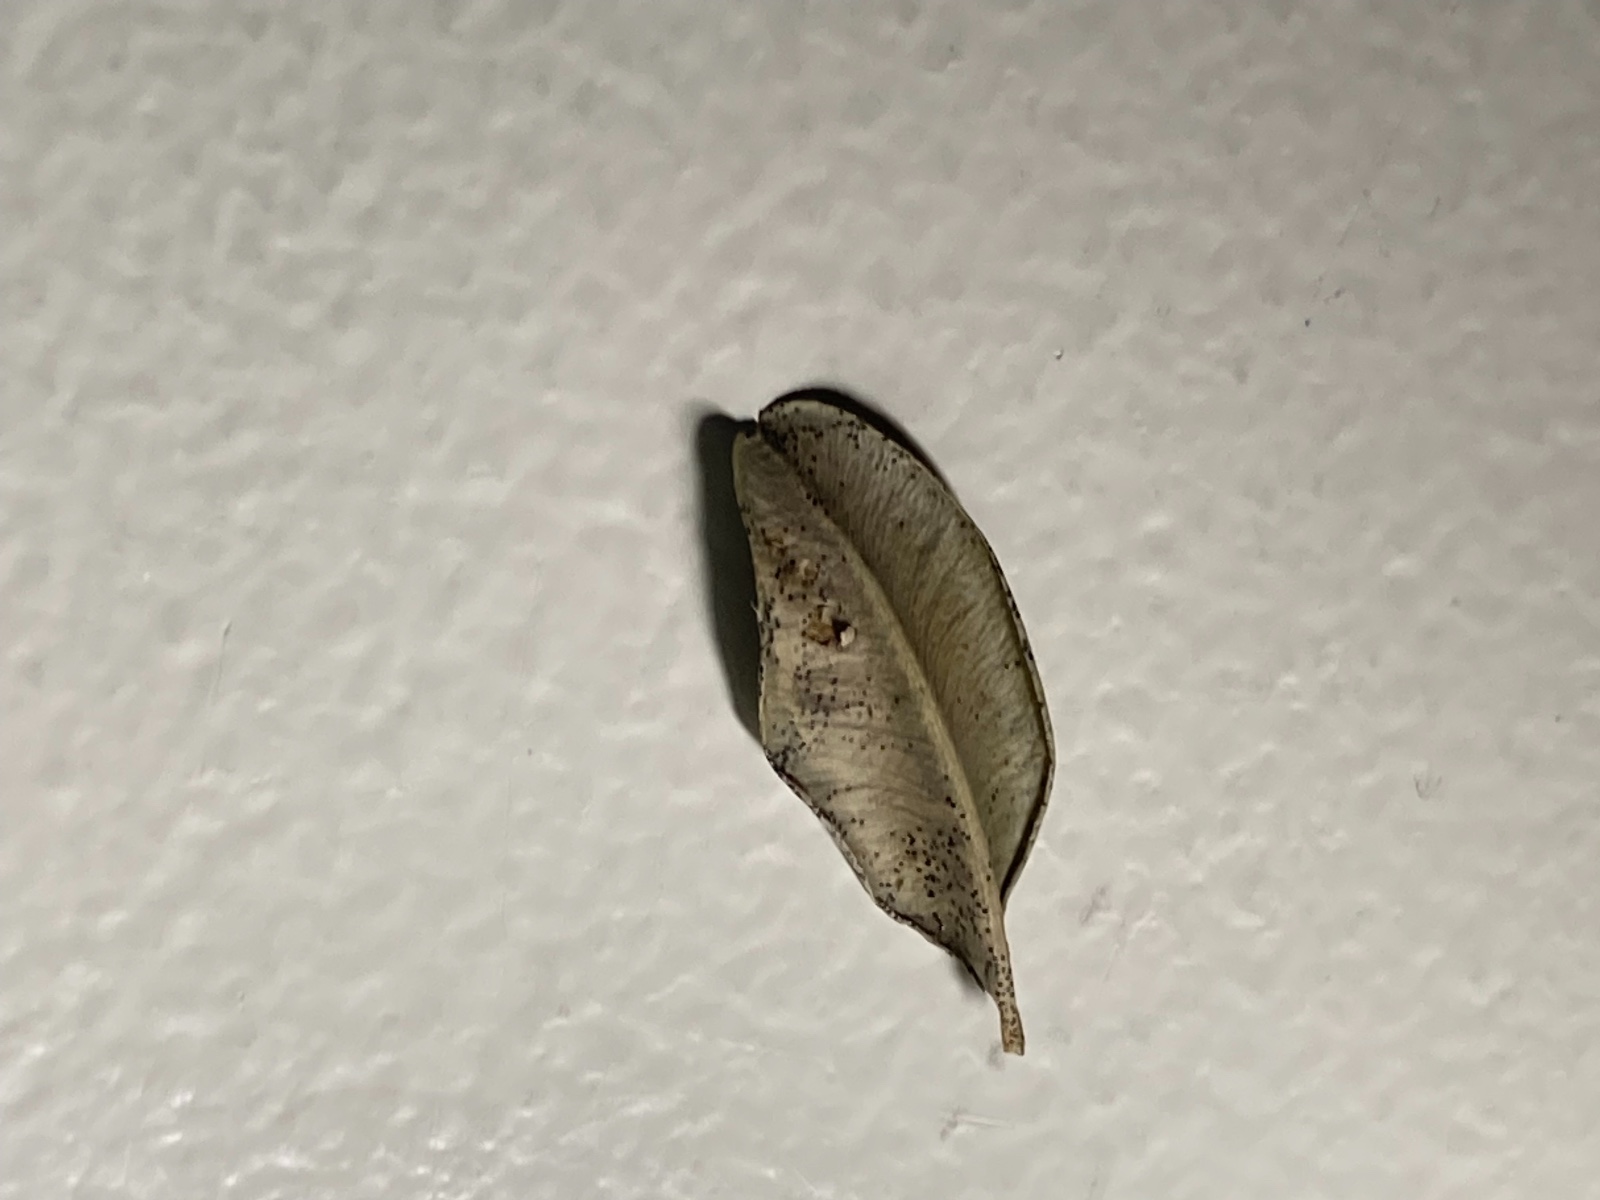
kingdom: Fungi
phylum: Ascomycota
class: Dothideomycetes
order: Microthyriales
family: Microthyriaceae
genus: Microthyrium
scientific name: Microthyrium macrosporum
